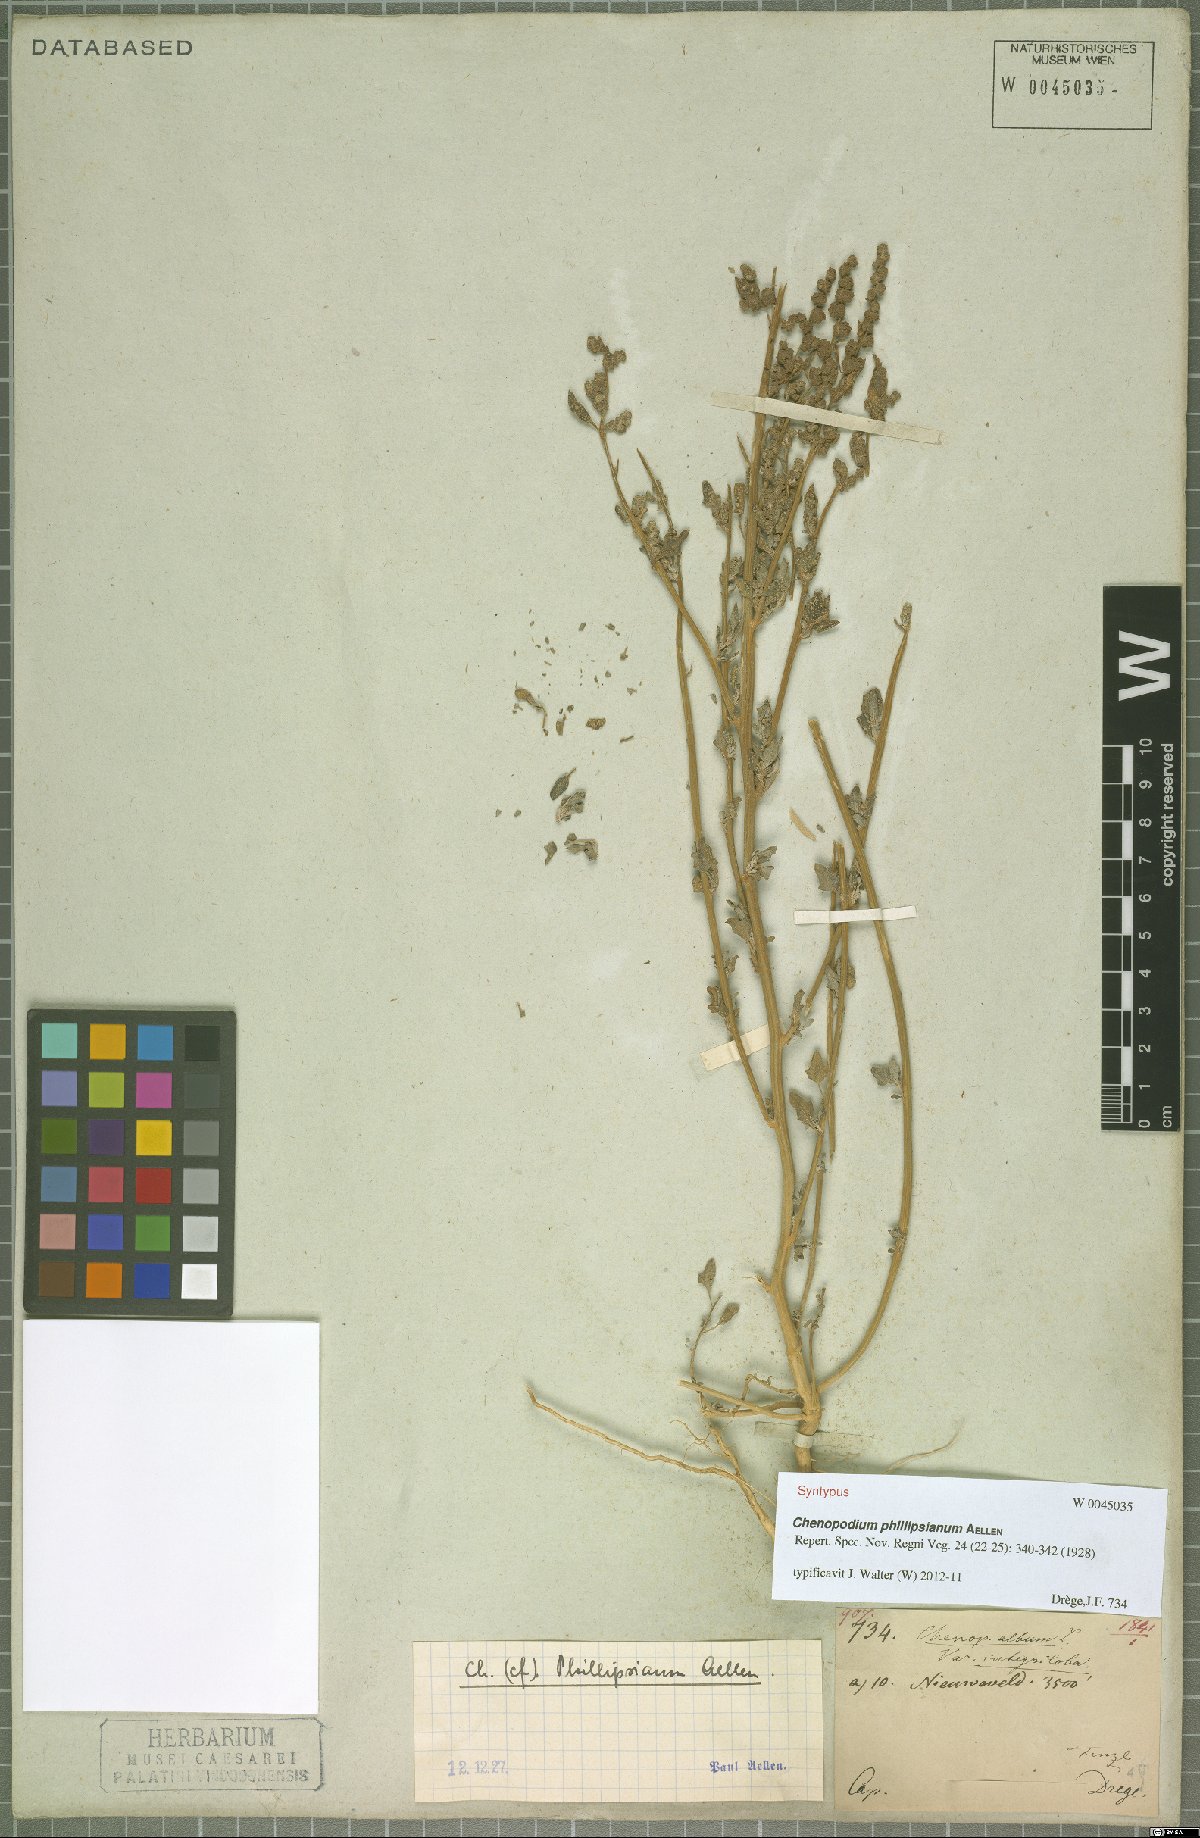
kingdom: Plantae
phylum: Tracheophyta
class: Magnoliopsida
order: Caryophyllales
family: Amaranthaceae
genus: Chenopodium
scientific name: Chenopodium phillipsianum
